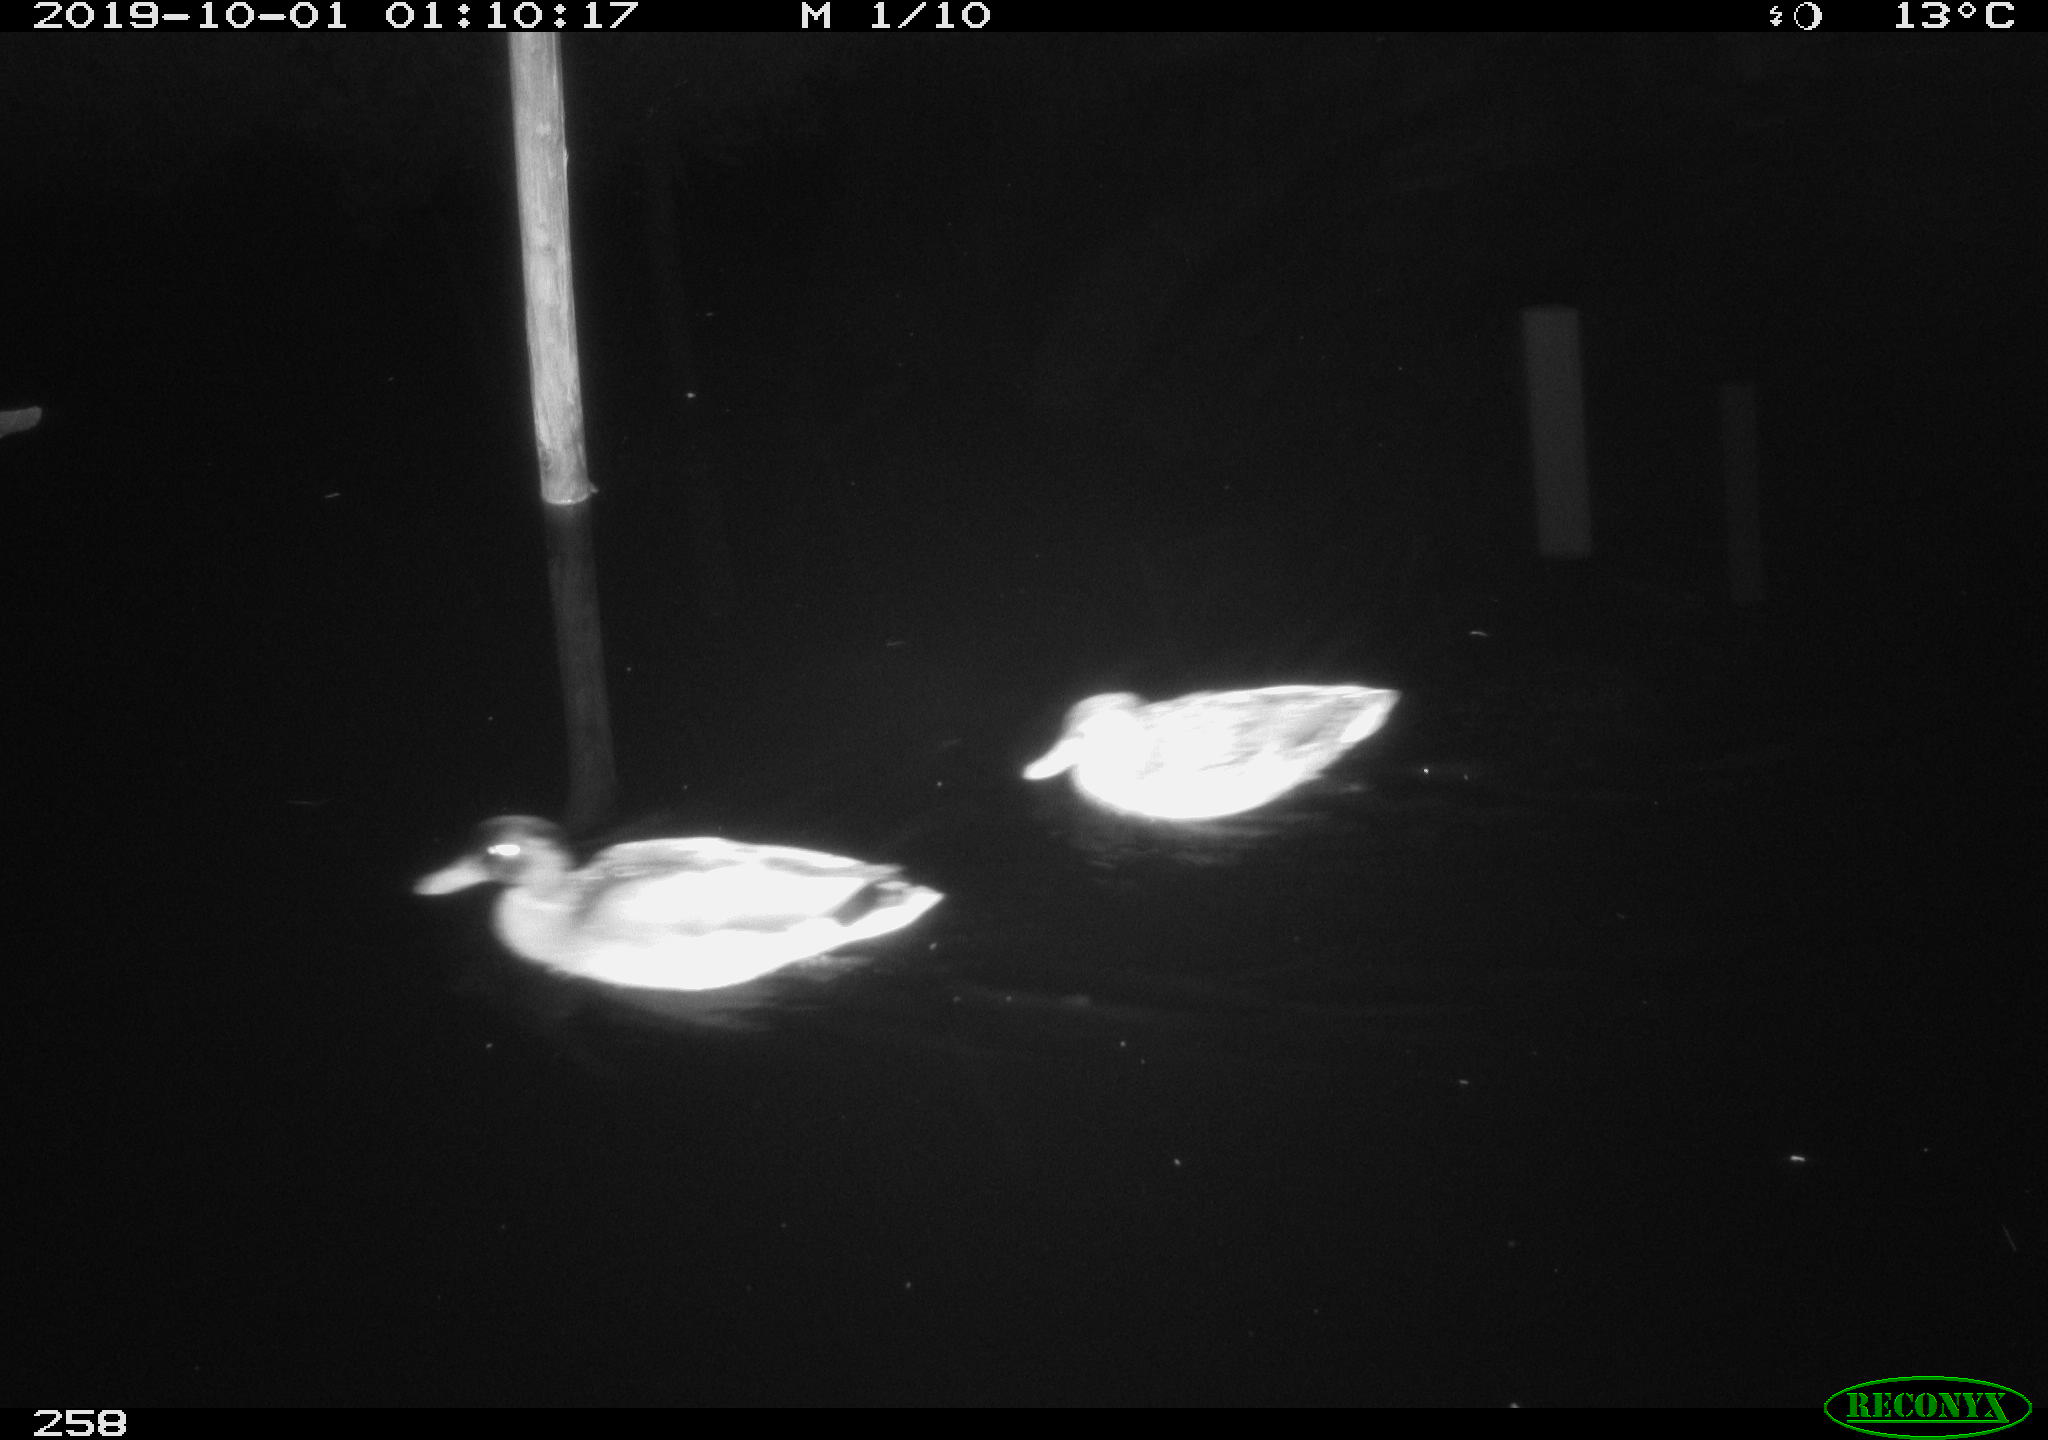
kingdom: Animalia
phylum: Chordata
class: Aves
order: Anseriformes
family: Anatidae
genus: Anas
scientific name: Anas platyrhynchos
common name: Mallard
